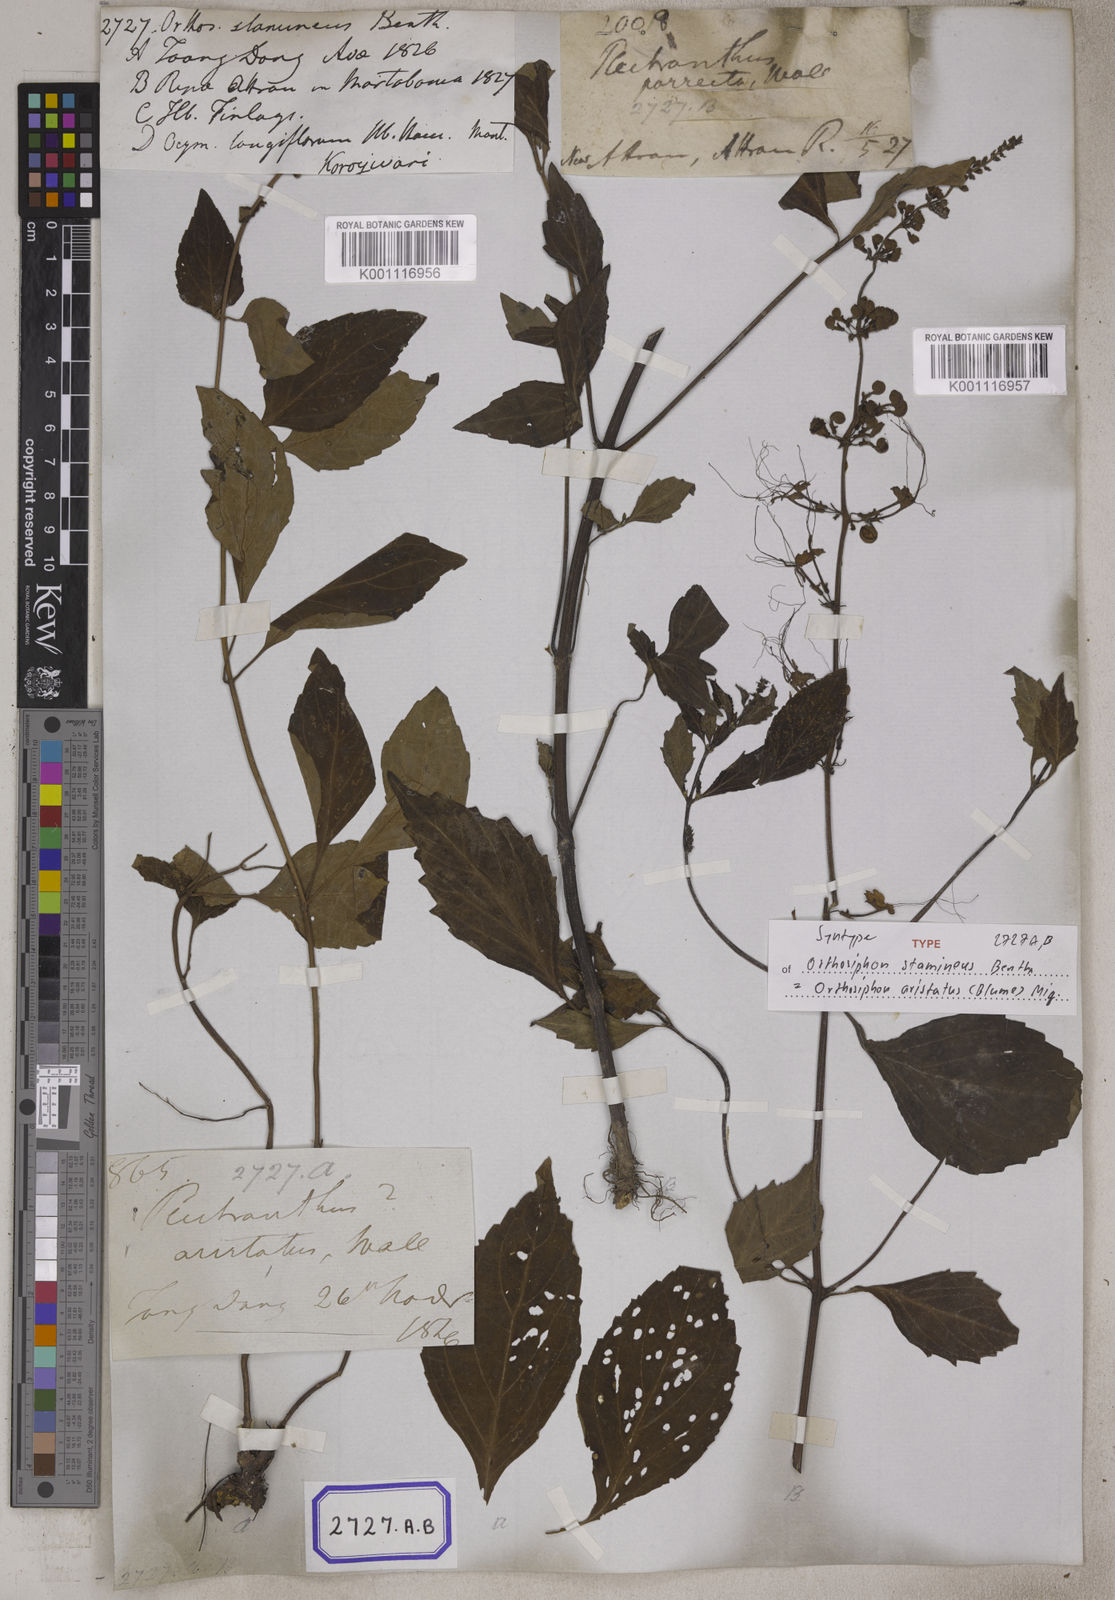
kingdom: Plantae
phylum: Tracheophyta
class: Magnoliopsida
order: Lamiales
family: Lamiaceae
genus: Orthosiphon
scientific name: Orthosiphon aristatus
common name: Whiskerplant
